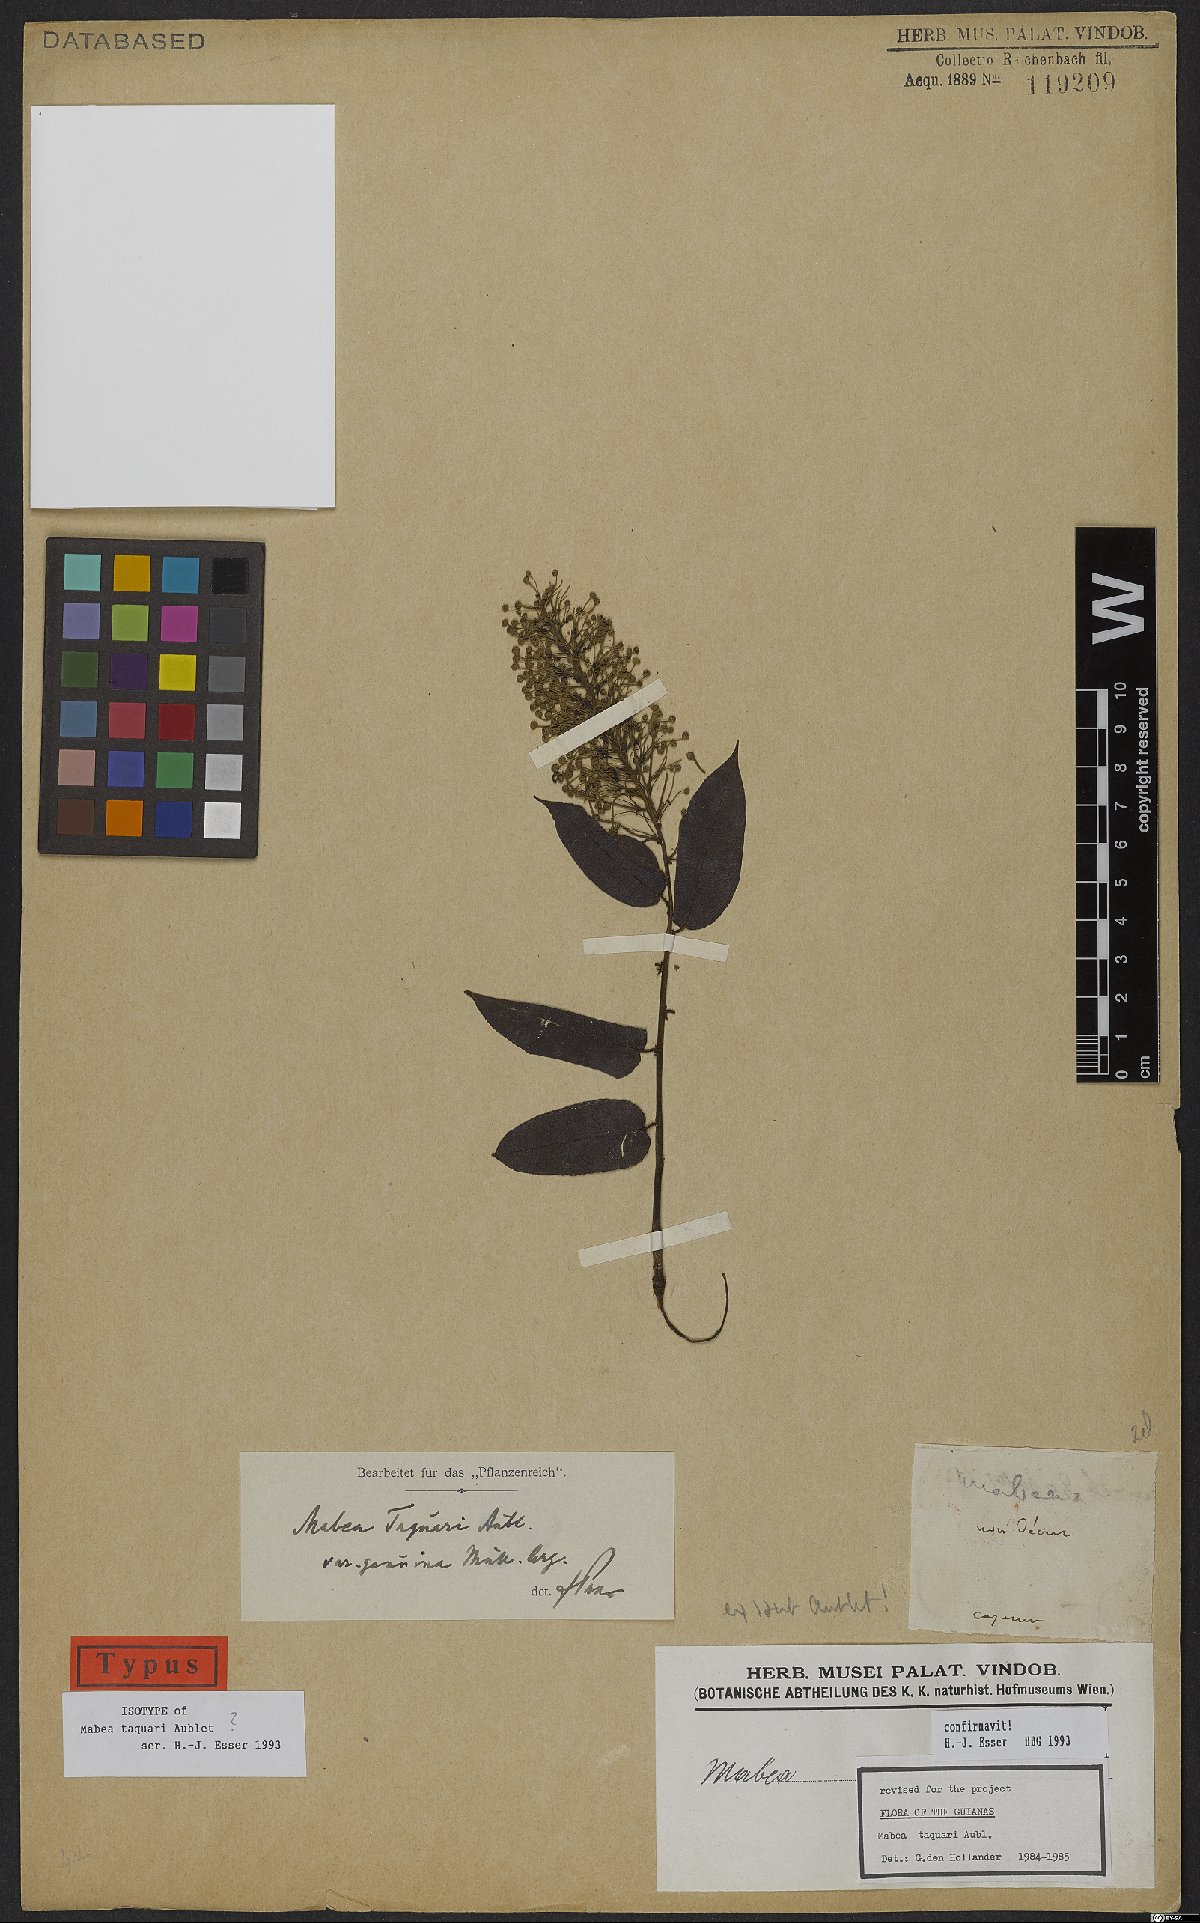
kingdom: Plantae
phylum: Tracheophyta
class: Magnoliopsida
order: Malpighiales
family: Euphorbiaceae
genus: Mabea
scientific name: Mabea taquari
